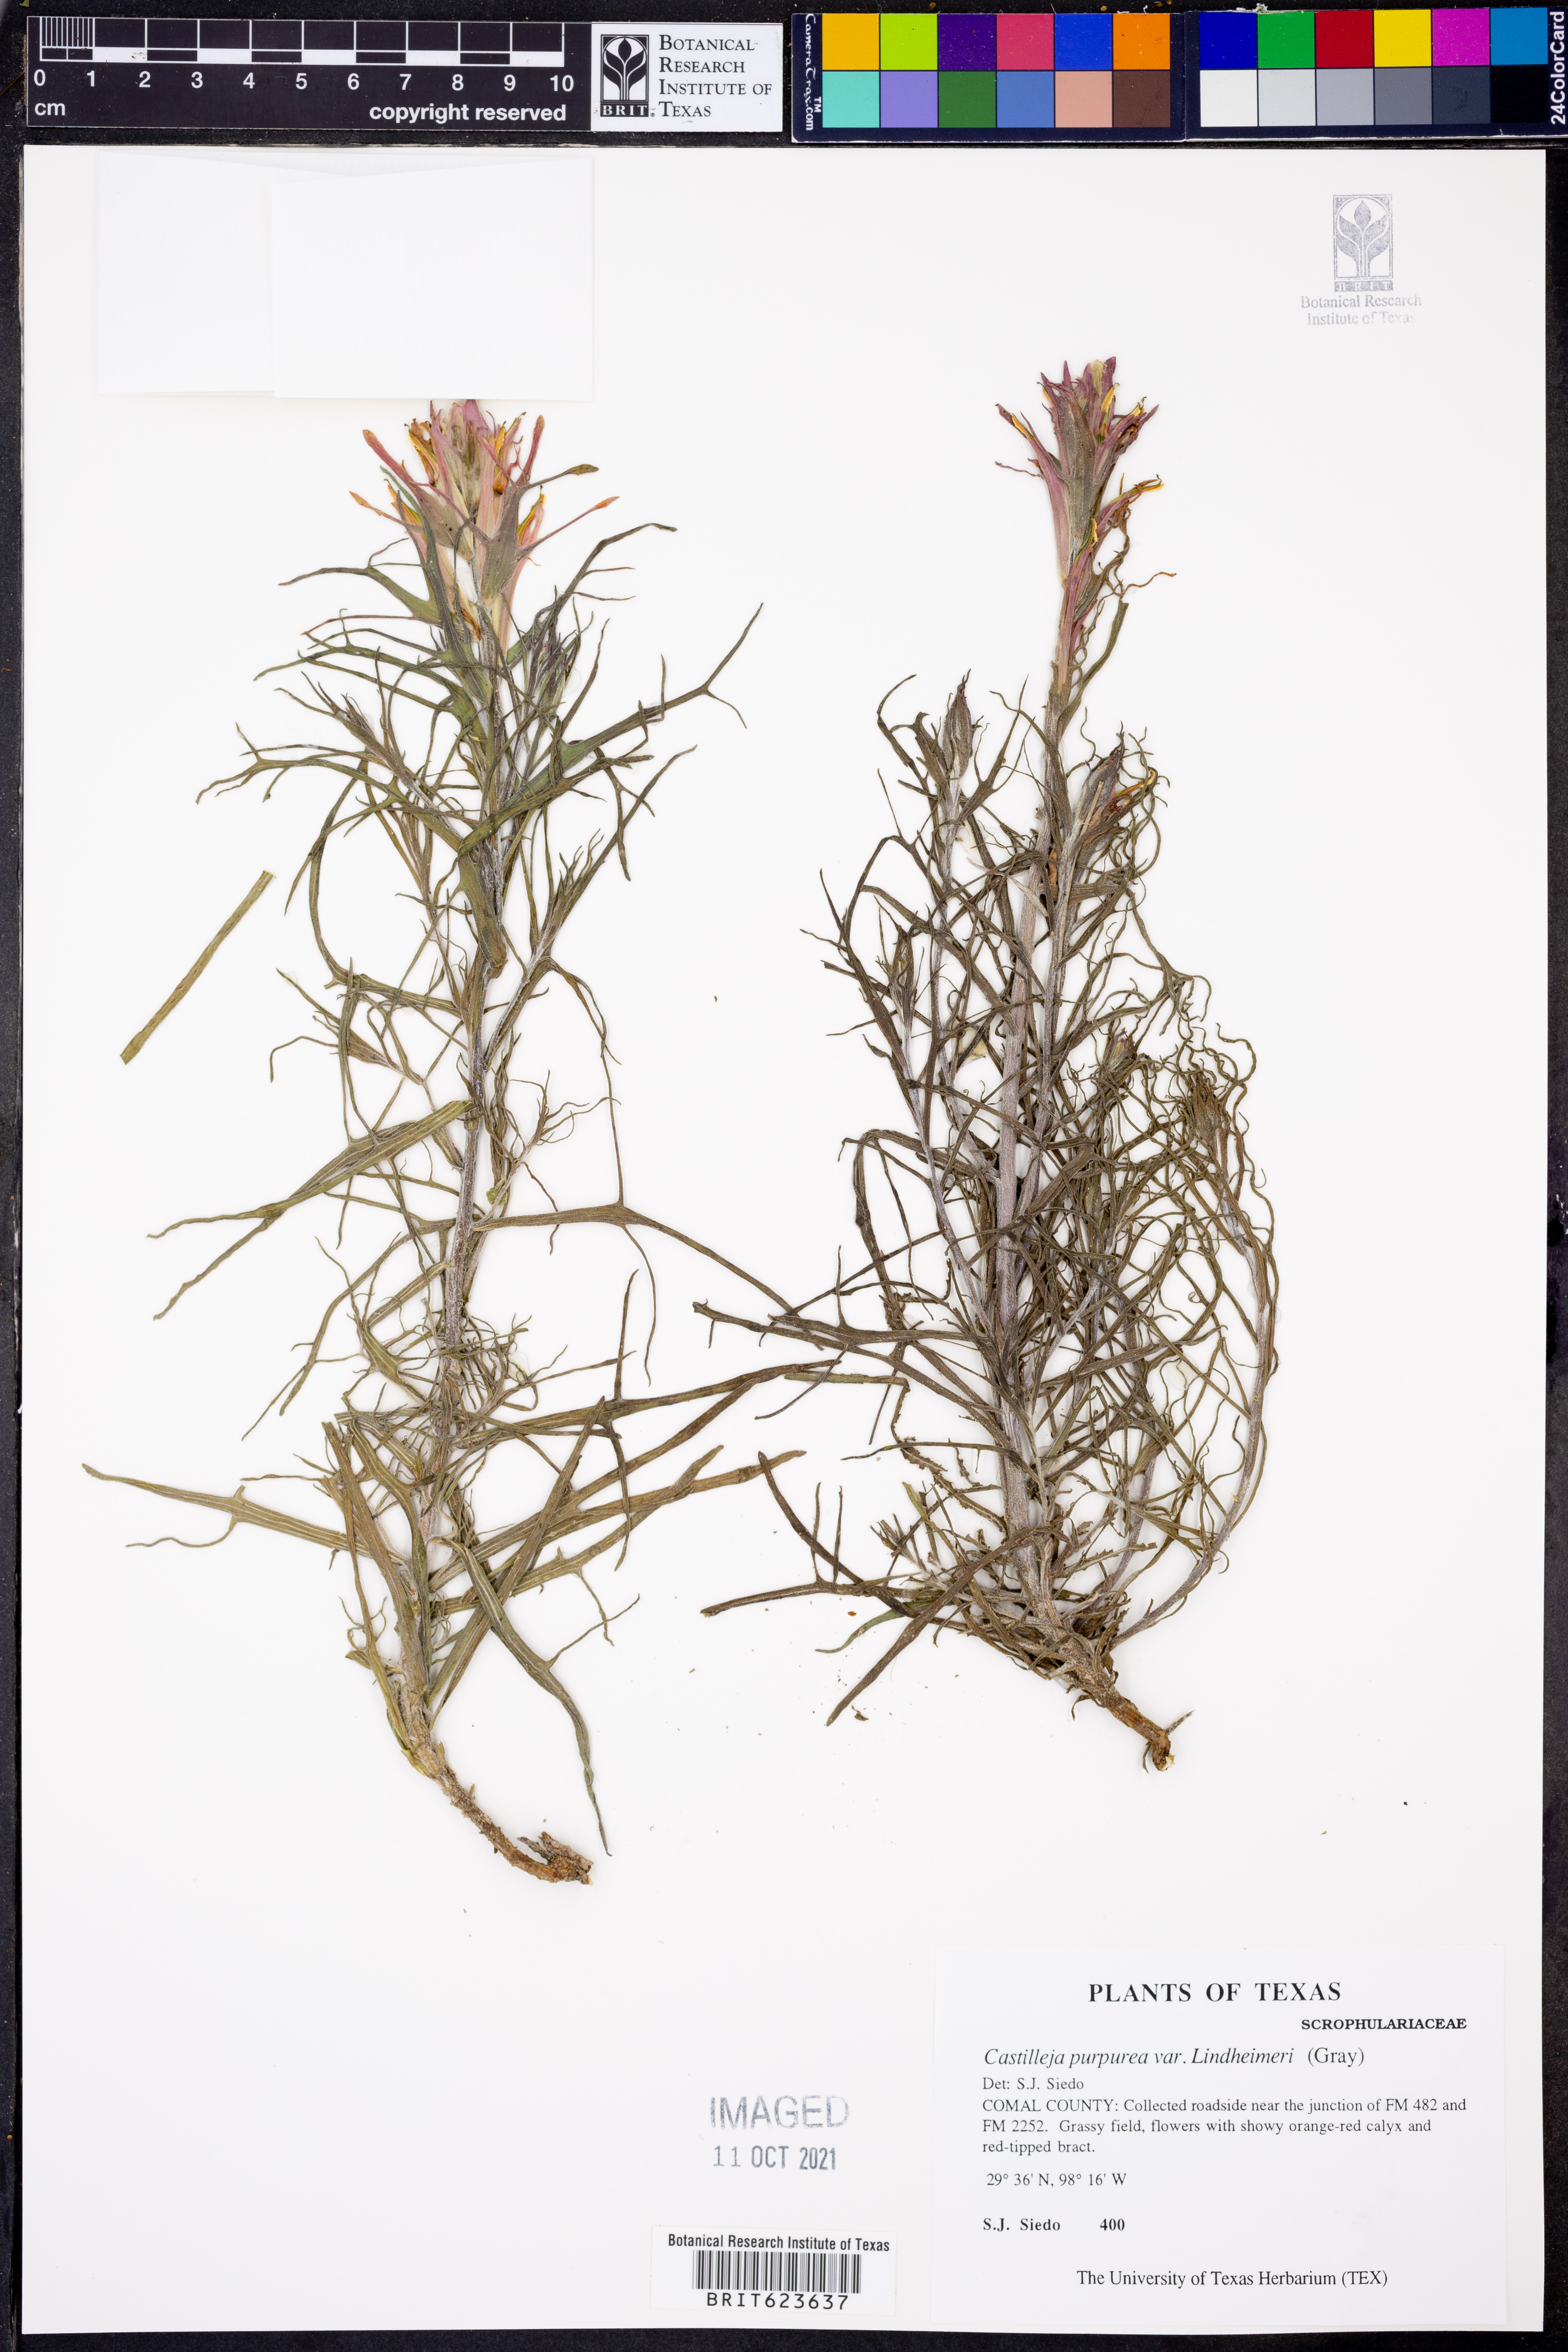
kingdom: Plantae
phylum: Tracheophyta
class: Magnoliopsida
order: Lamiales
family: Orobanchaceae
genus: Castilleja
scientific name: Castilleja lindheimeri
